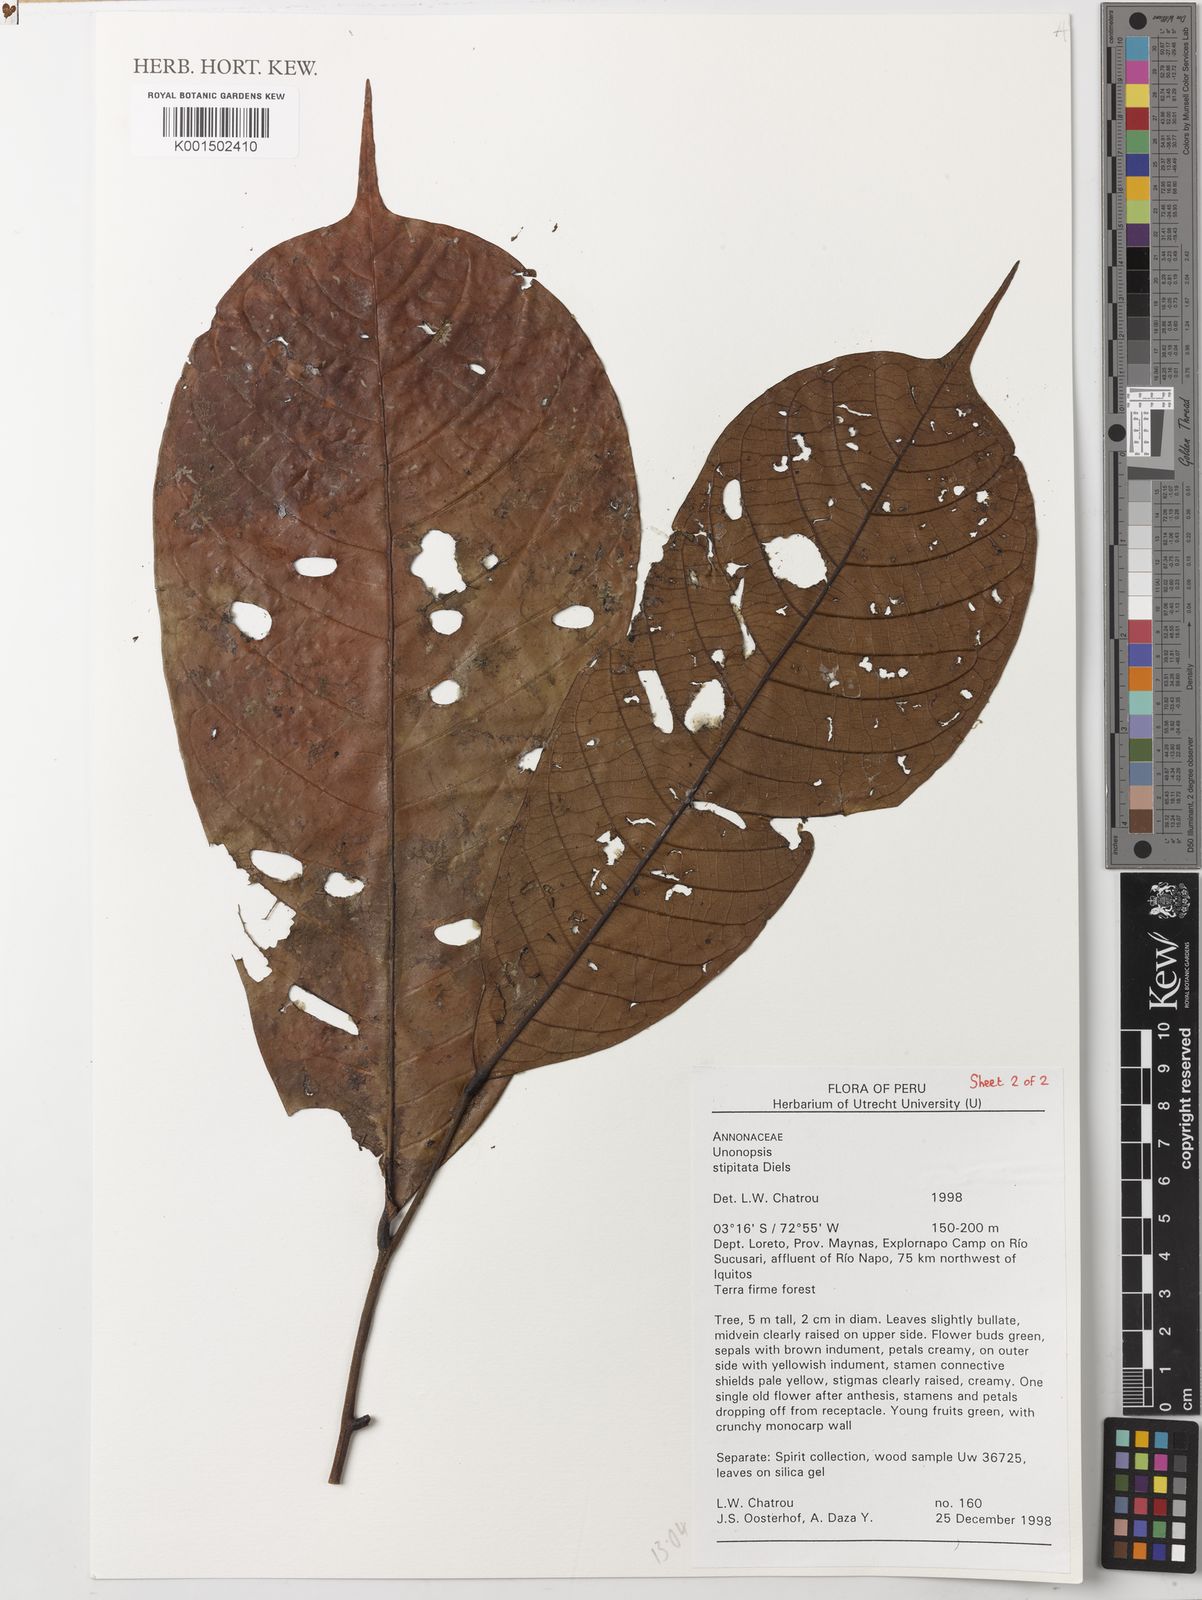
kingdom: Plantae
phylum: Tracheophyta
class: Magnoliopsida
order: Magnoliales
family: Annonaceae
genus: Unonopsis
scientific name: Unonopsis stipitata
